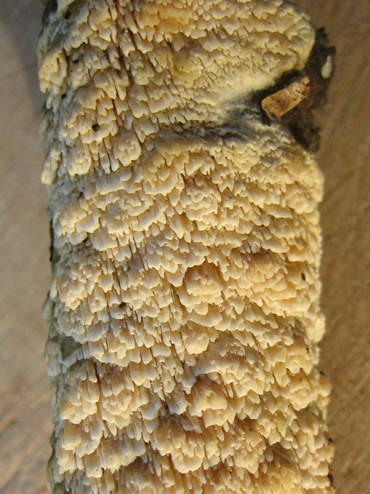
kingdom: Fungi
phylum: Basidiomycota
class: Agaricomycetes
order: Hymenochaetales
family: Schizoporaceae
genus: Schizopora
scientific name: Schizopora paradoxa
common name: hvid tandsvamp
